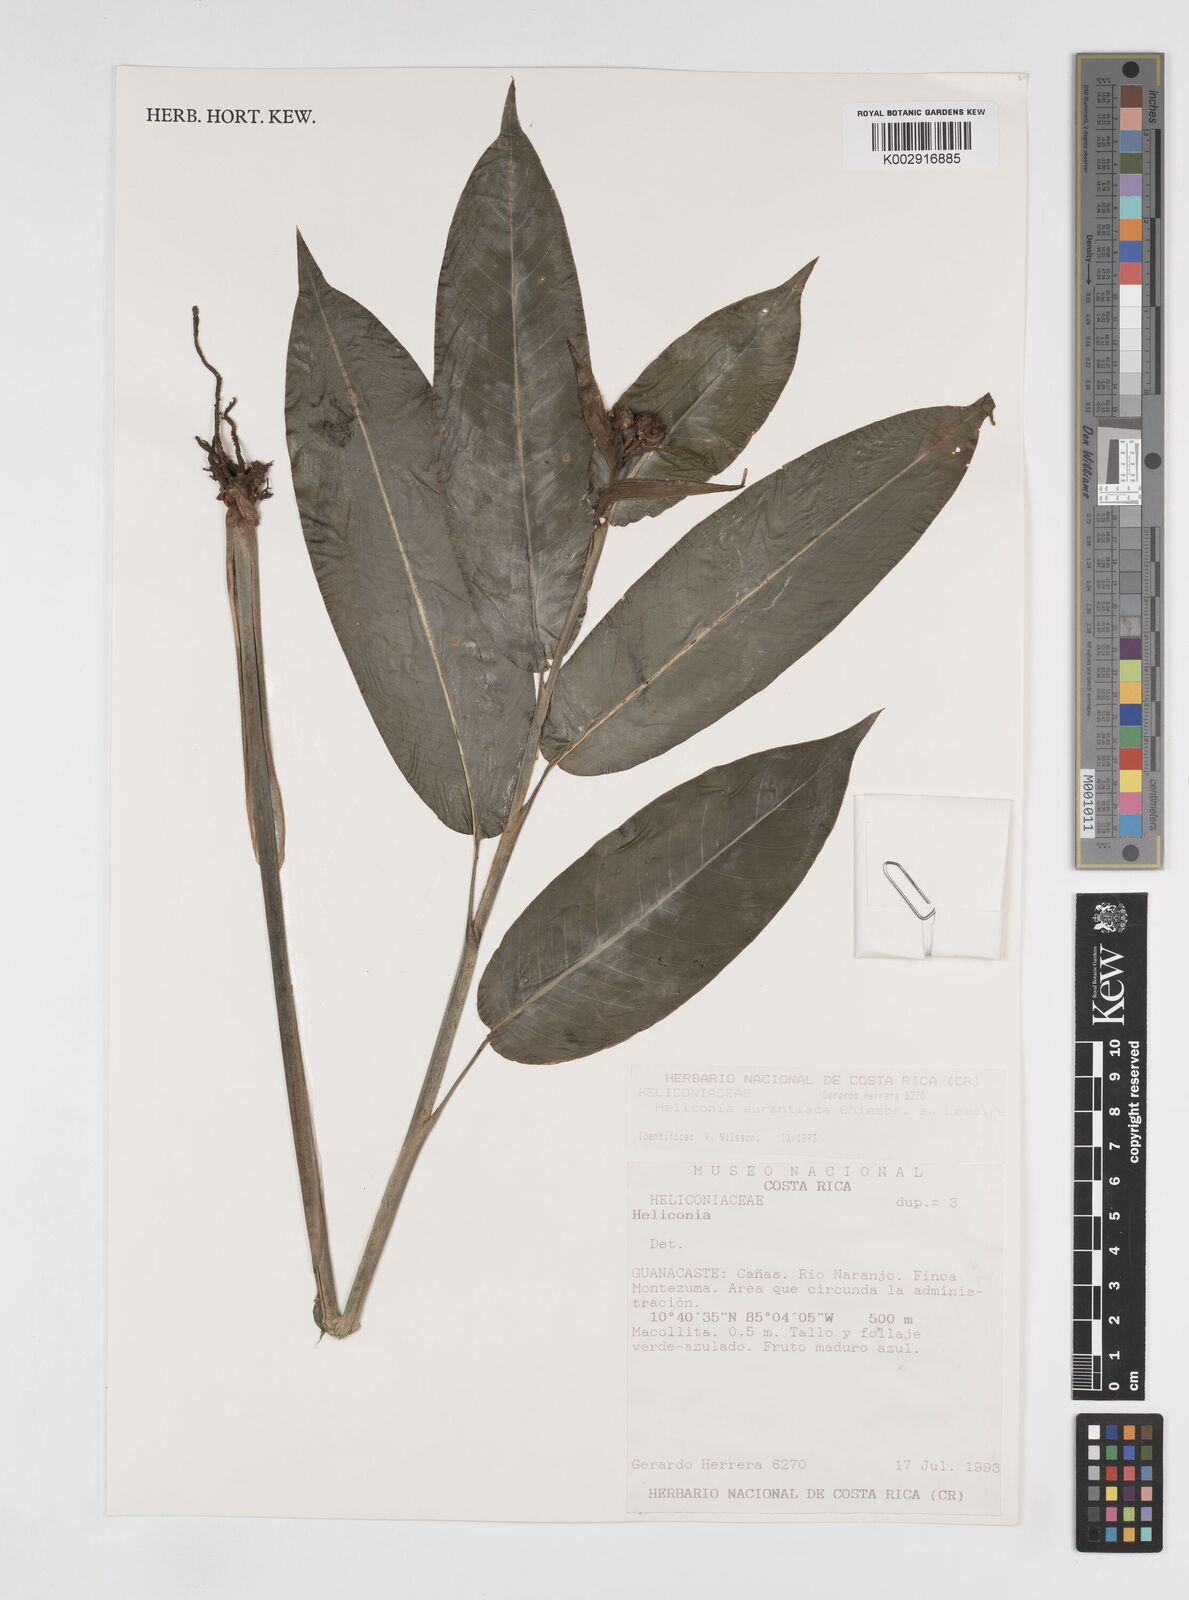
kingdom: Plantae
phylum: Tracheophyta
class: Liliopsida
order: Zingiberales
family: Heliconiaceae
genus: Heliconia
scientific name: Heliconia aurantiaca
